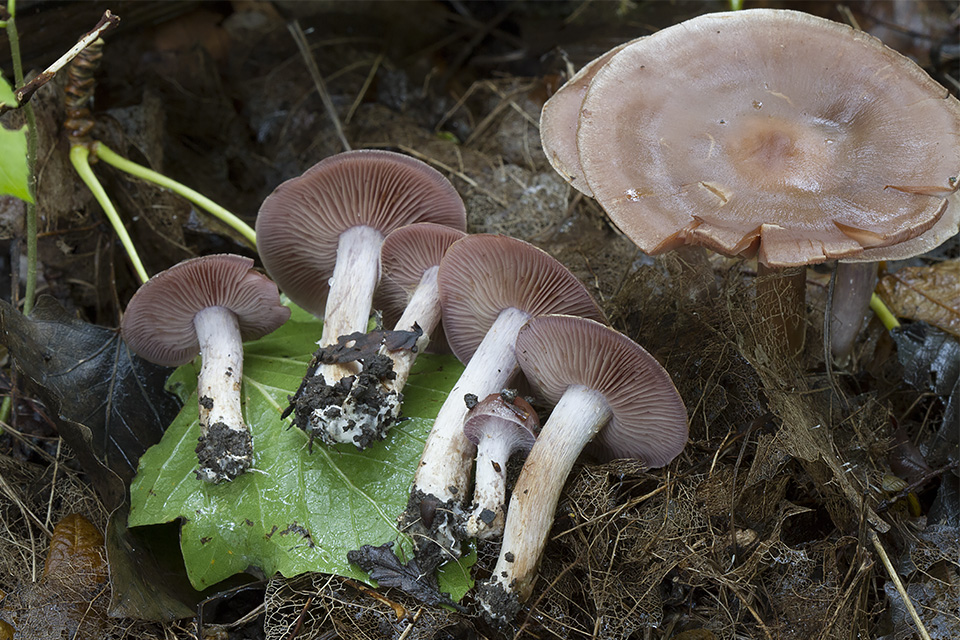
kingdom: Fungi
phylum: Basidiomycota
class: Agaricomycetes
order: Agaricales
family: Cortinariaceae
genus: Cortinarius
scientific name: Cortinarius cyprinus
